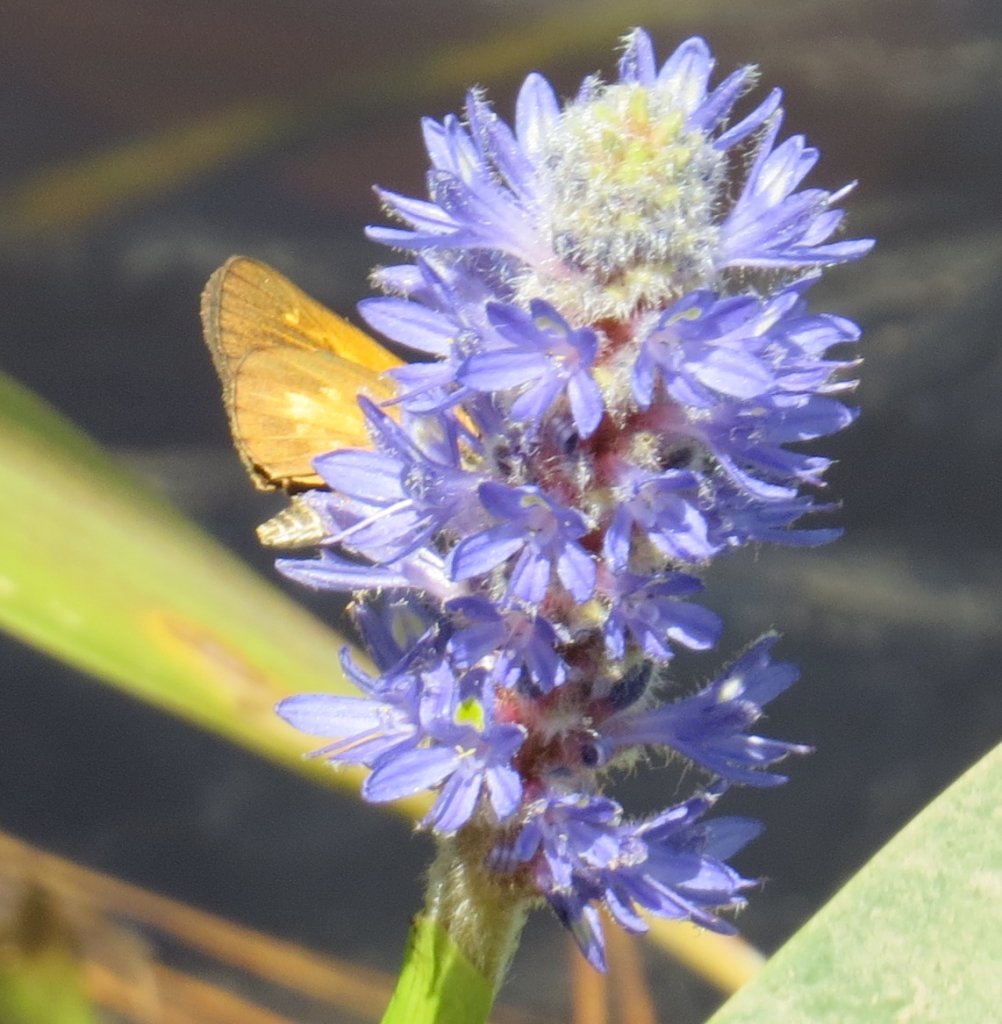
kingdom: Animalia
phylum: Arthropoda
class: Insecta
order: Lepidoptera
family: Hesperiidae
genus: Poanes
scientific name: Poanes viator
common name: Broad-winged Skipper
